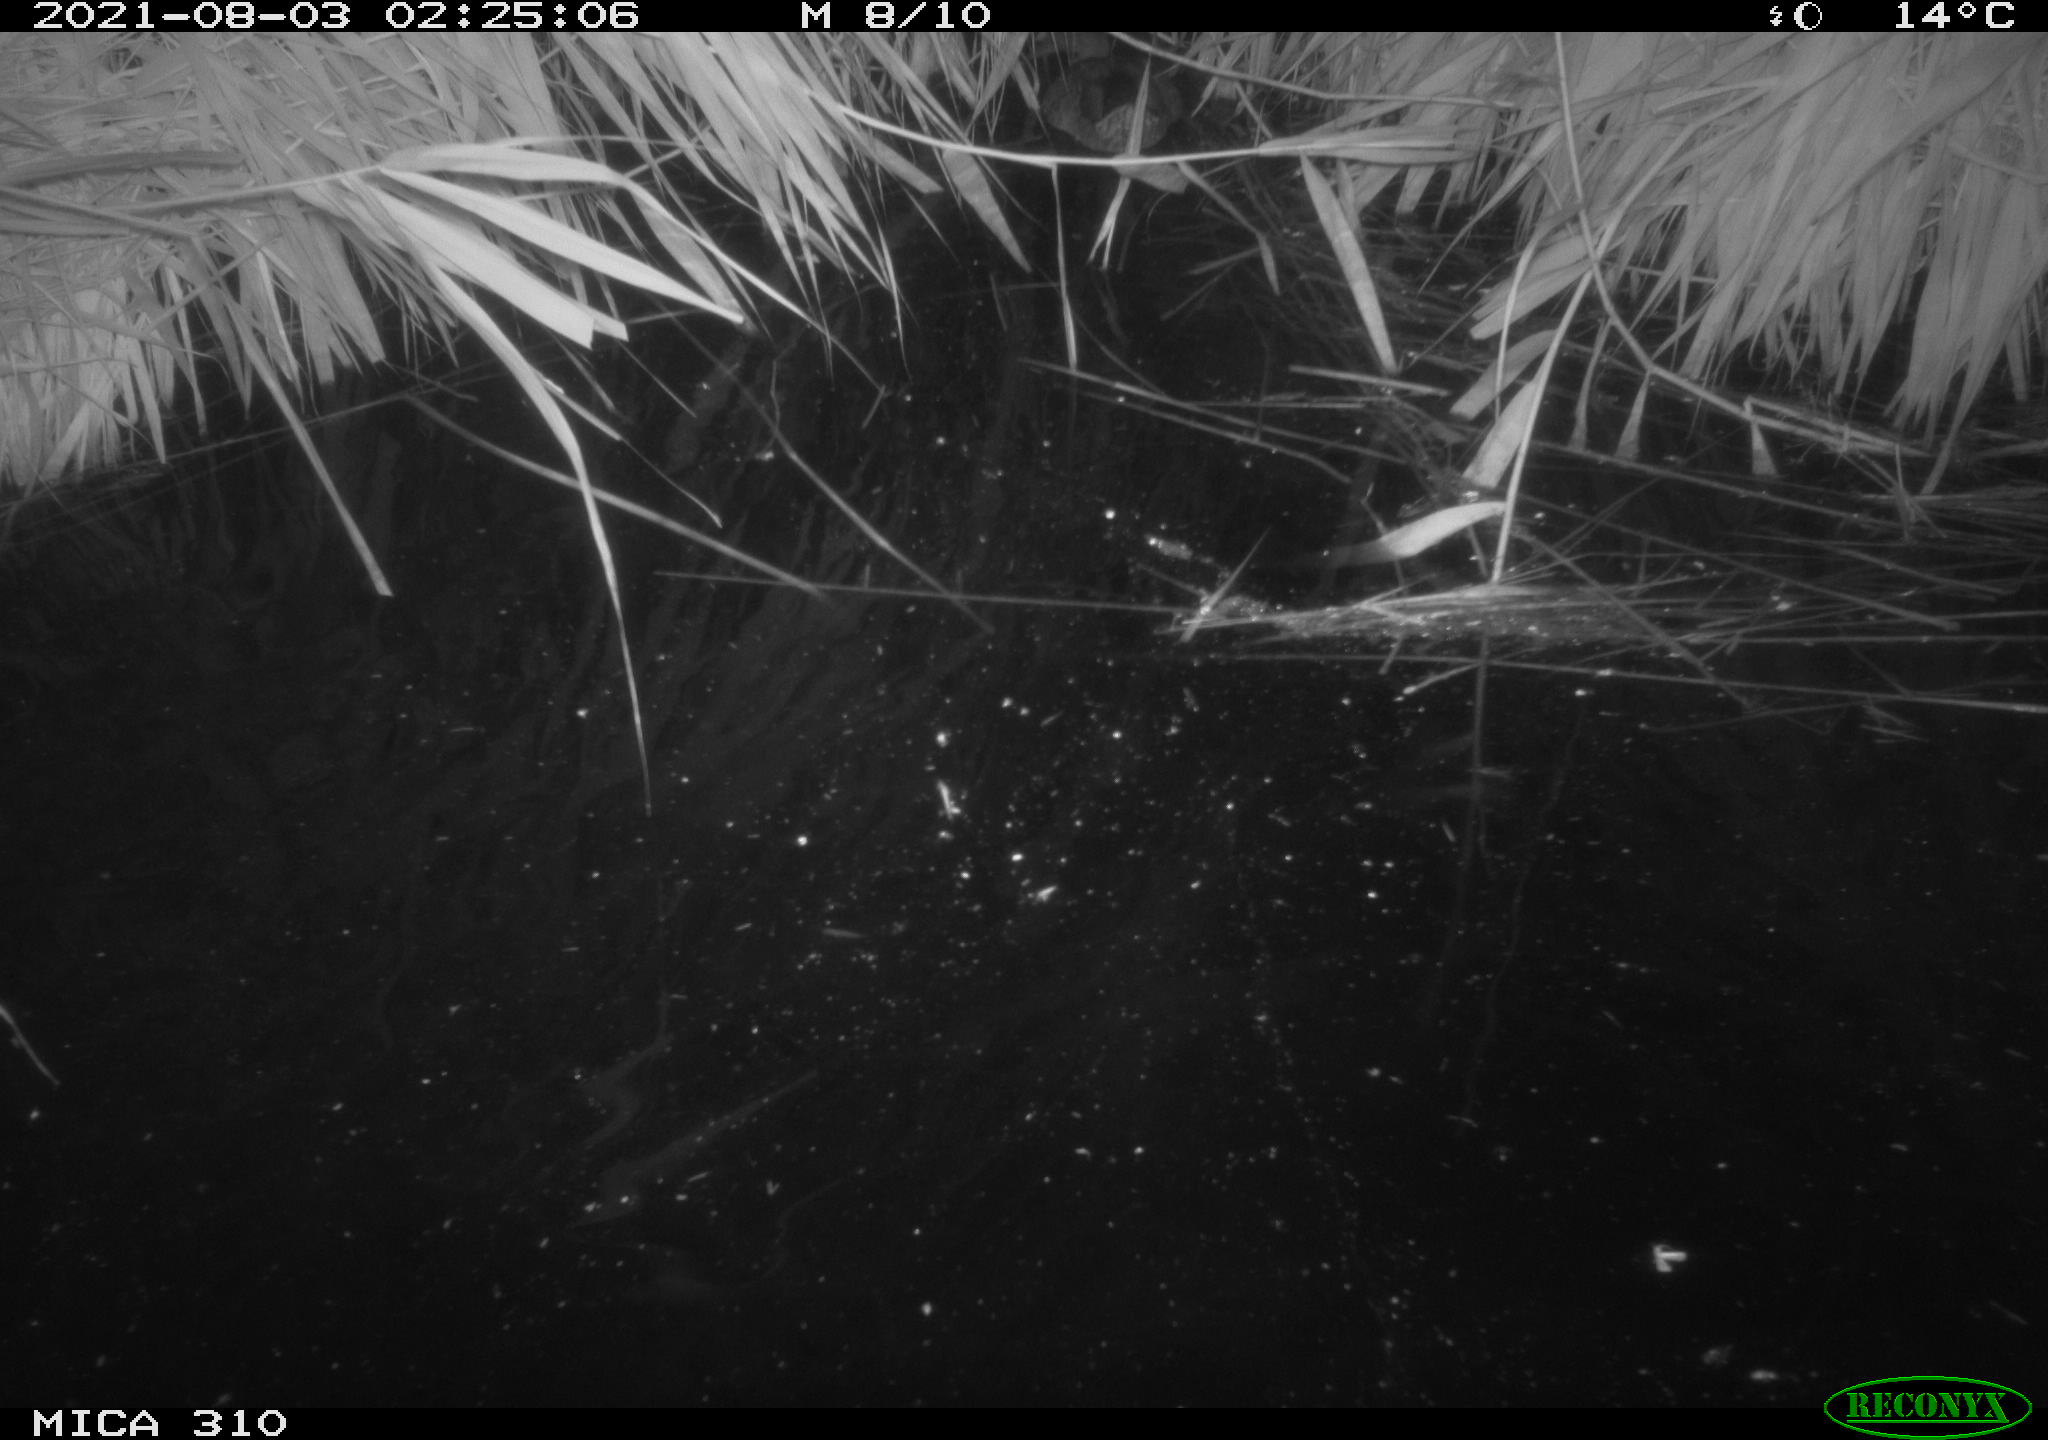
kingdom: Animalia
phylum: Chordata
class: Aves
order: Anseriformes
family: Anatidae
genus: Anas
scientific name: Anas platyrhynchos
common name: Mallard
